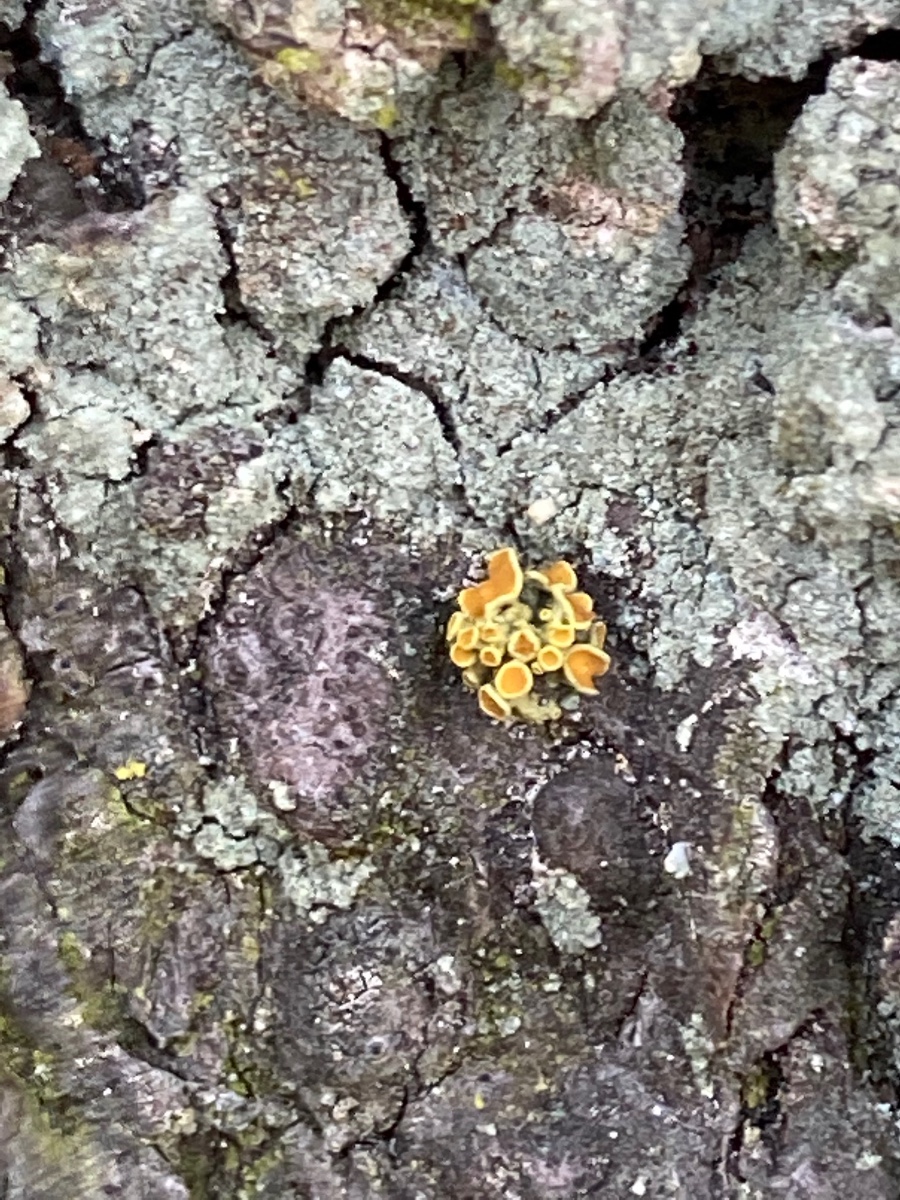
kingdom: Fungi
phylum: Ascomycota
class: Lecanoromycetes
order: Teloschistales
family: Teloschistaceae
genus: Polycauliona
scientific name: Polycauliona polycarpa
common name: mangefrugtet orangelav
